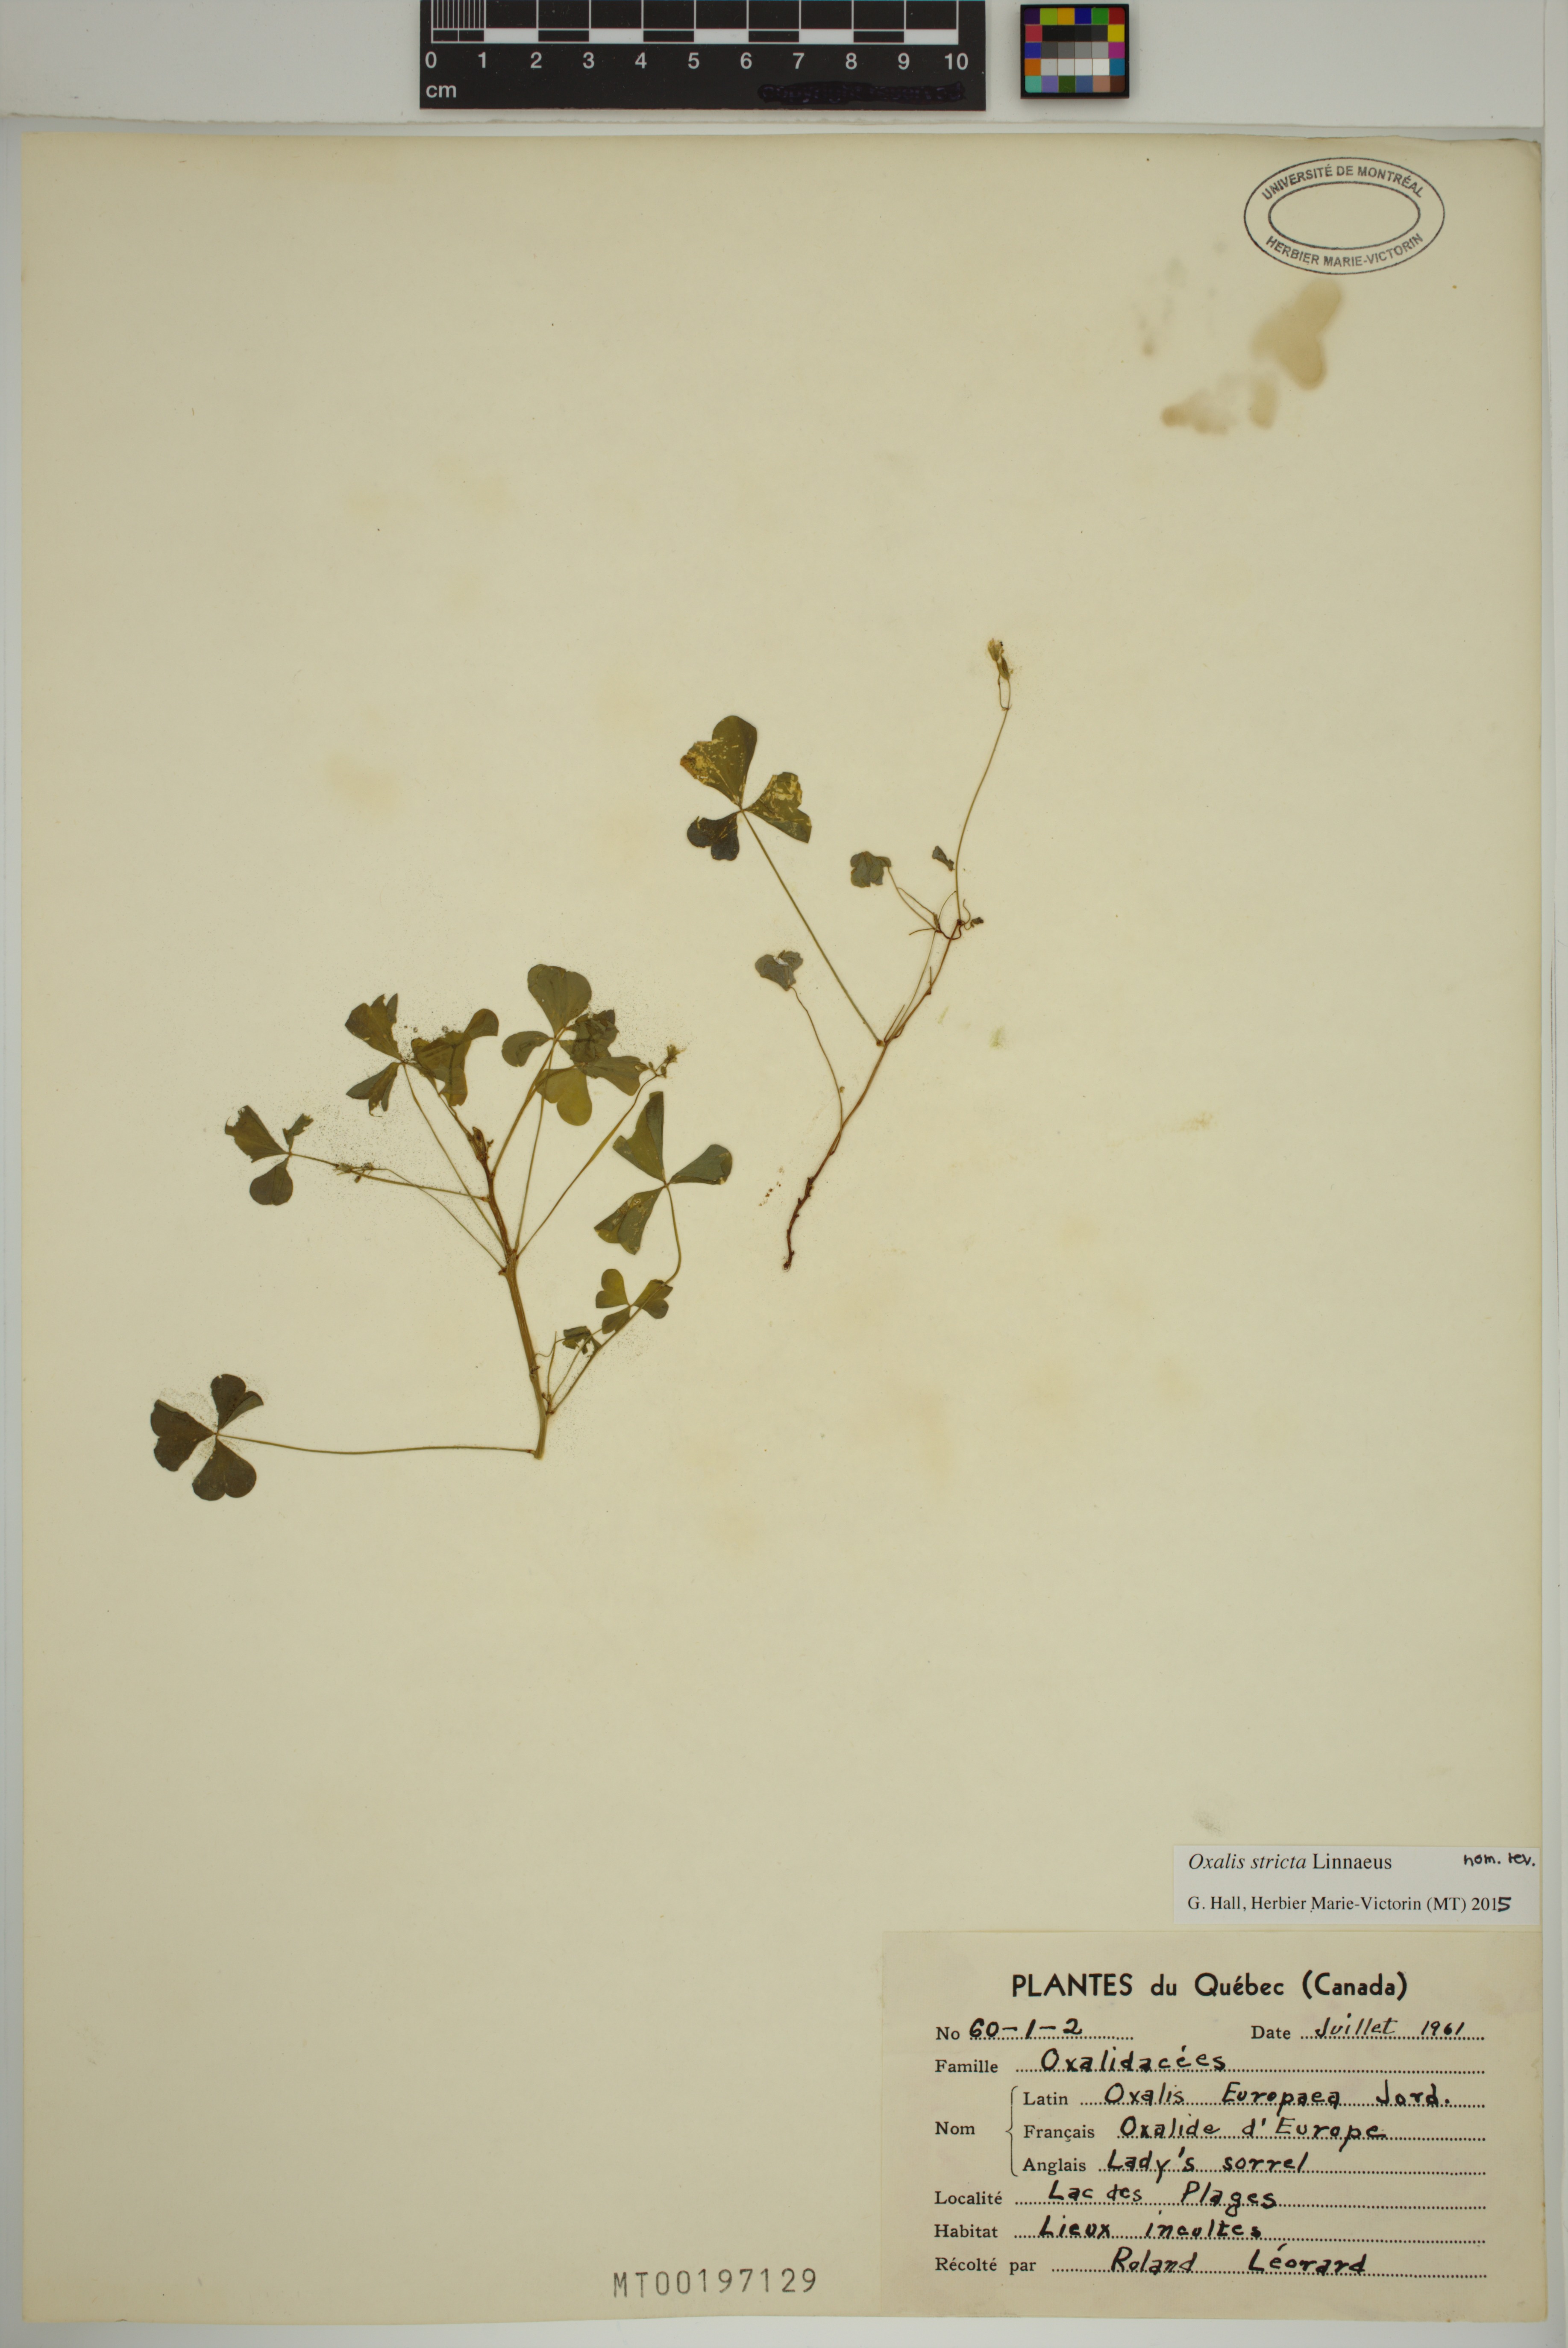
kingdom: Plantae
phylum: Tracheophyta
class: Magnoliopsida
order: Oxalidales
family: Oxalidaceae
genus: Oxalis
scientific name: Oxalis stricta
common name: Upright yellow-sorrel
